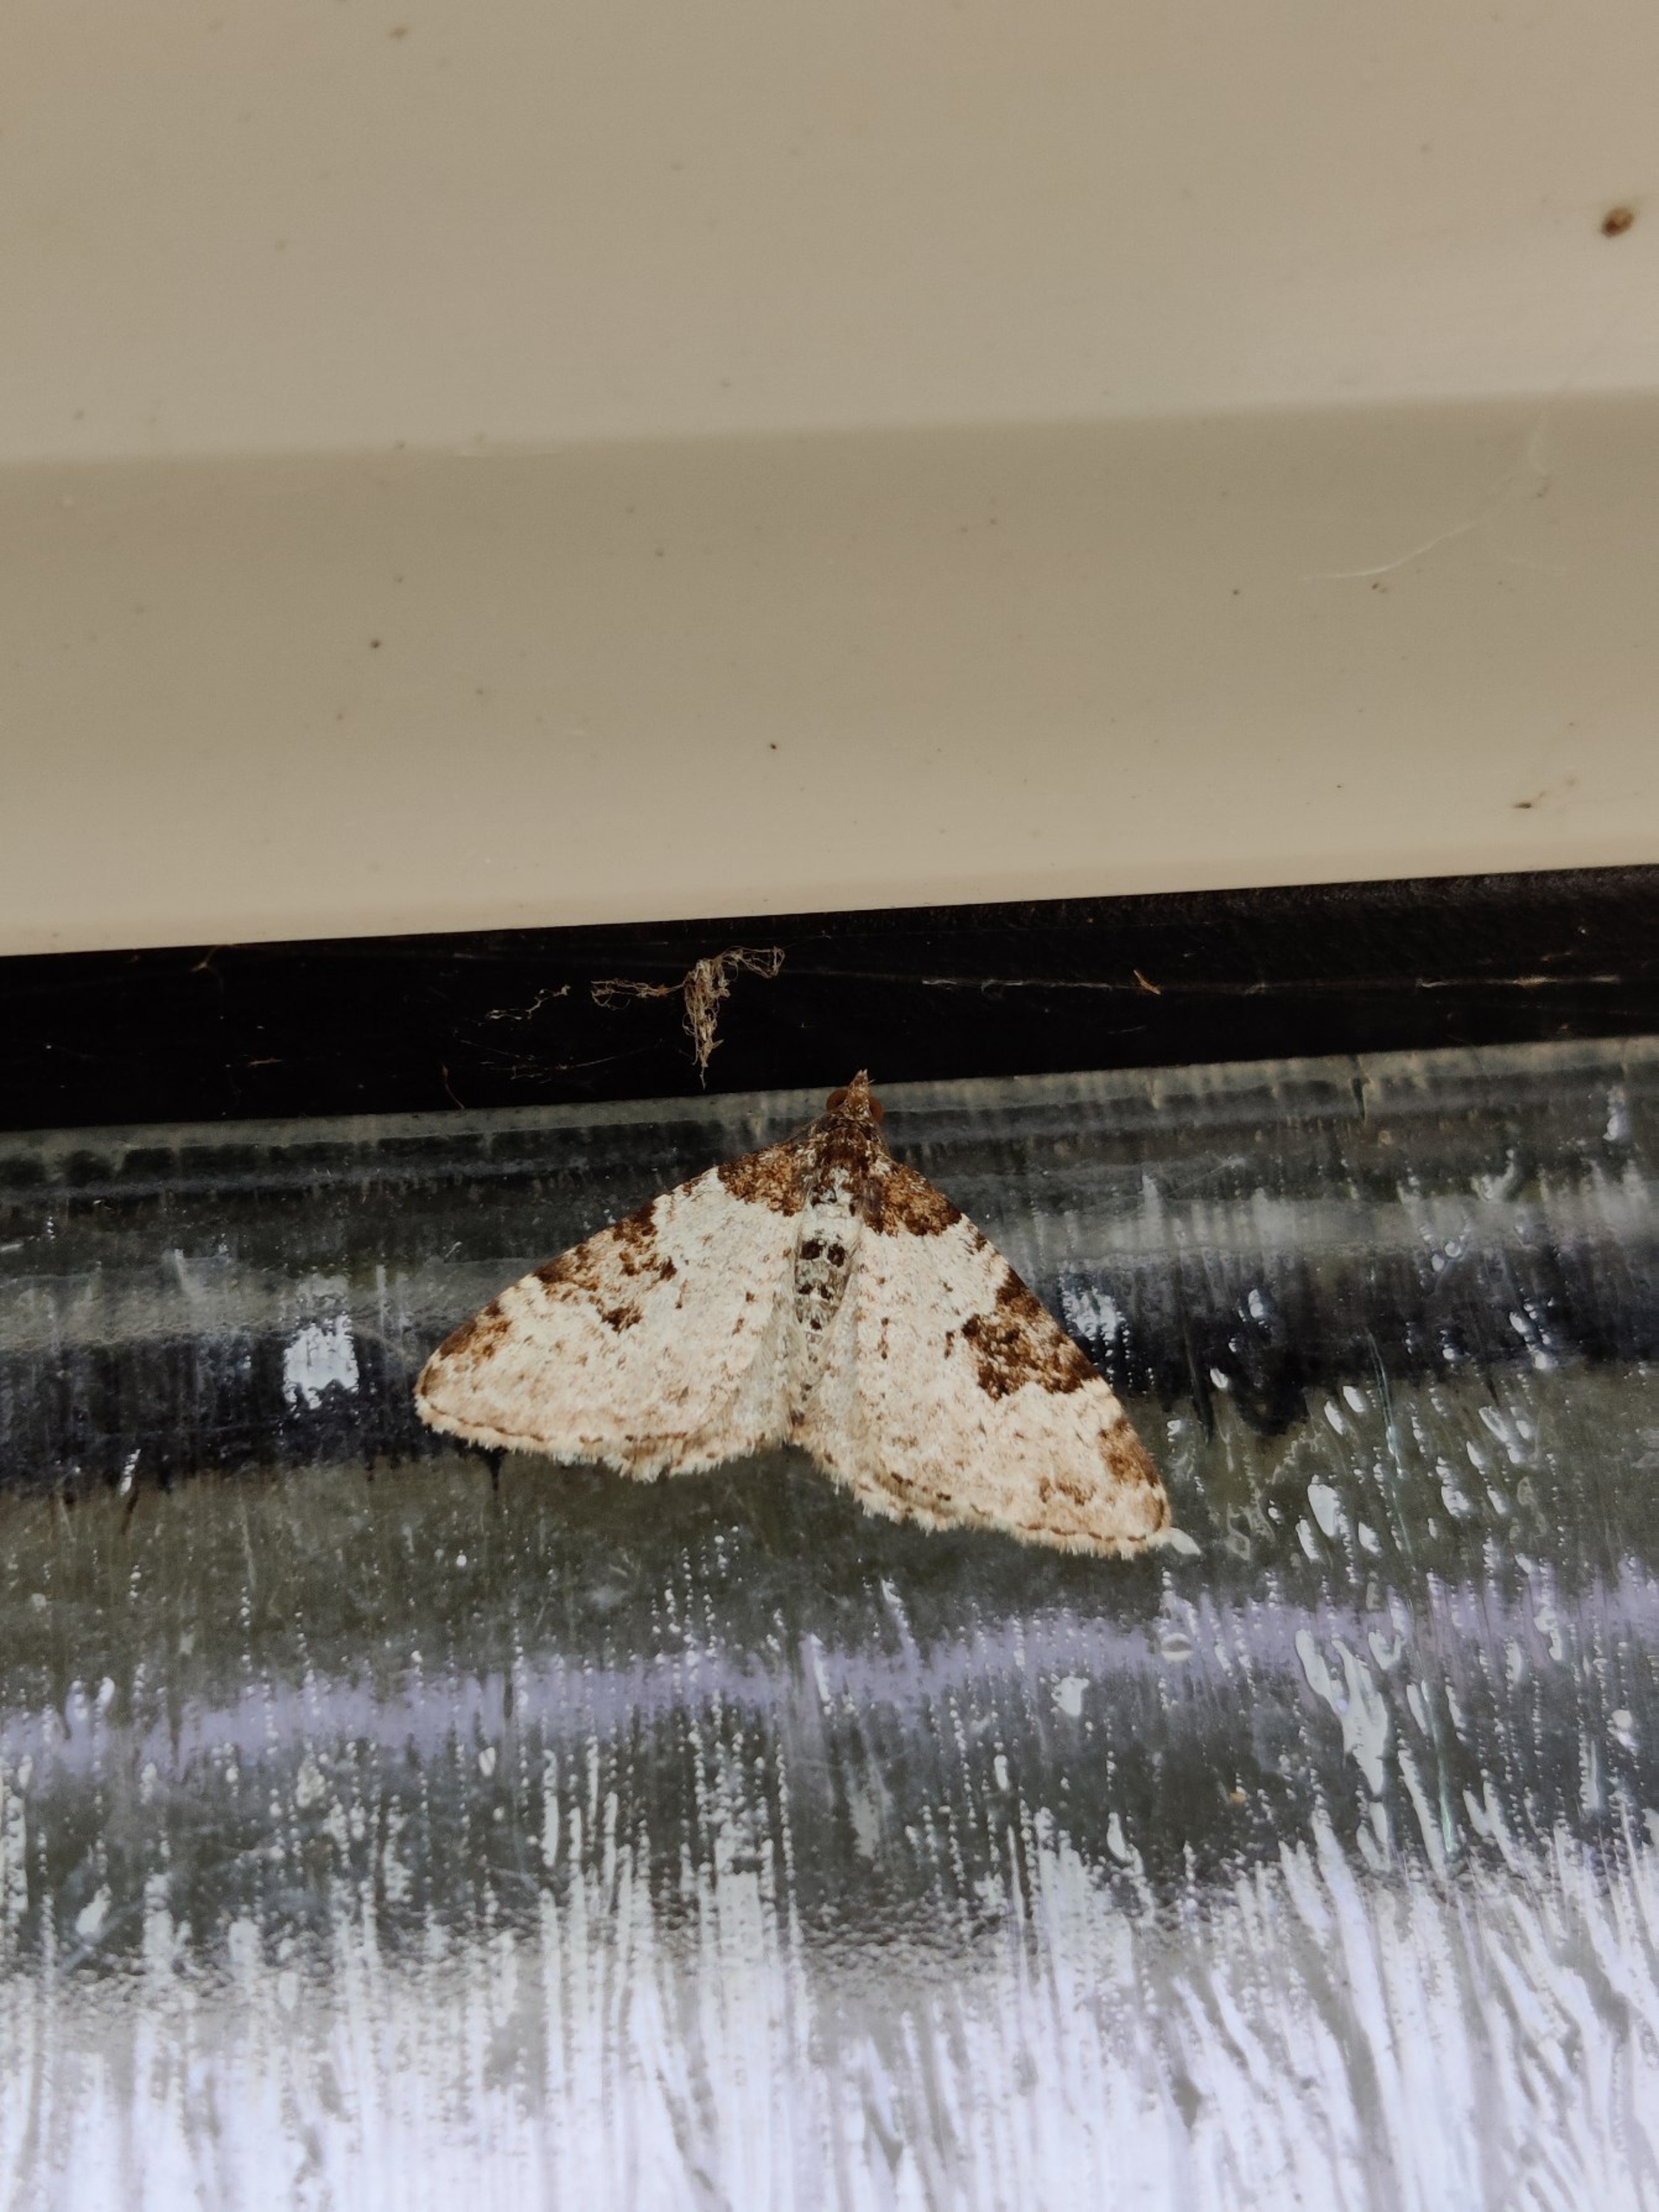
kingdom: Animalia
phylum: Arthropoda
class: Insecta
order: Lepidoptera
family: Geometridae
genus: Xanthorhoe
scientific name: Xanthorhoe fluctuata
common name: Sortbæltet bladmåler
